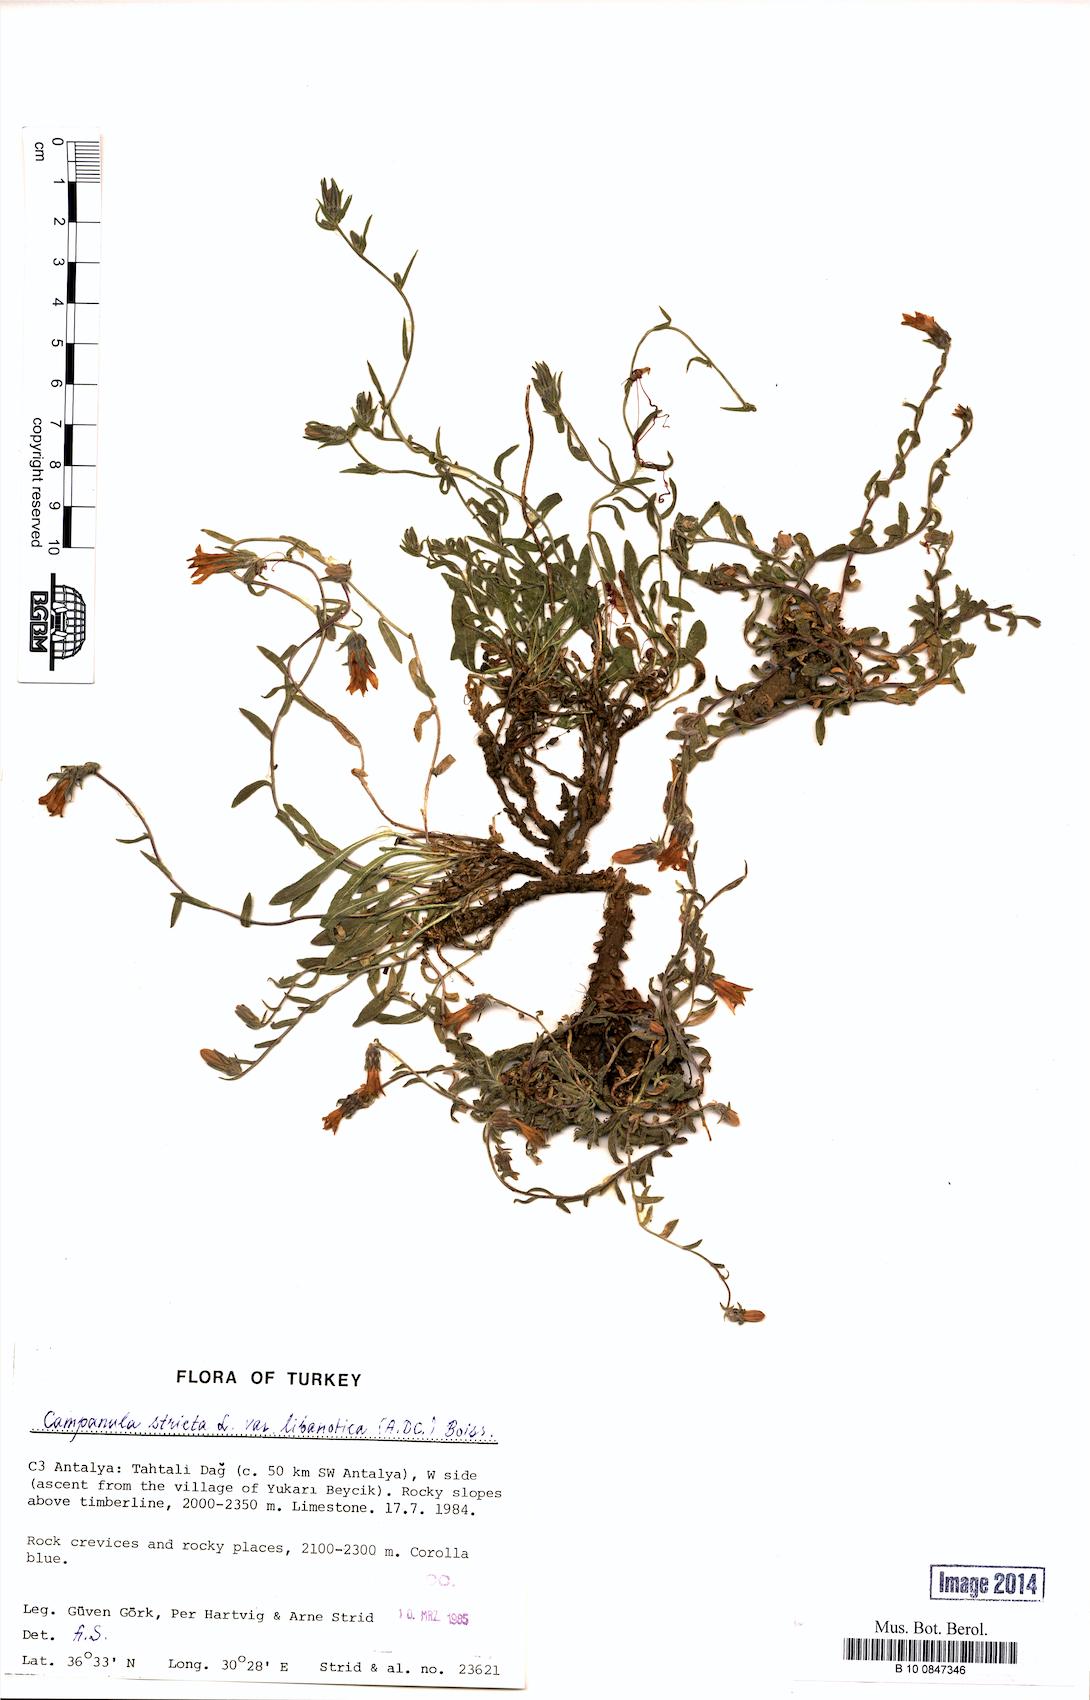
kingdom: Plantae
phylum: Tracheophyta
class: Magnoliopsida
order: Asterales
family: Campanulaceae
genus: Campanula
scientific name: Campanula stricta
